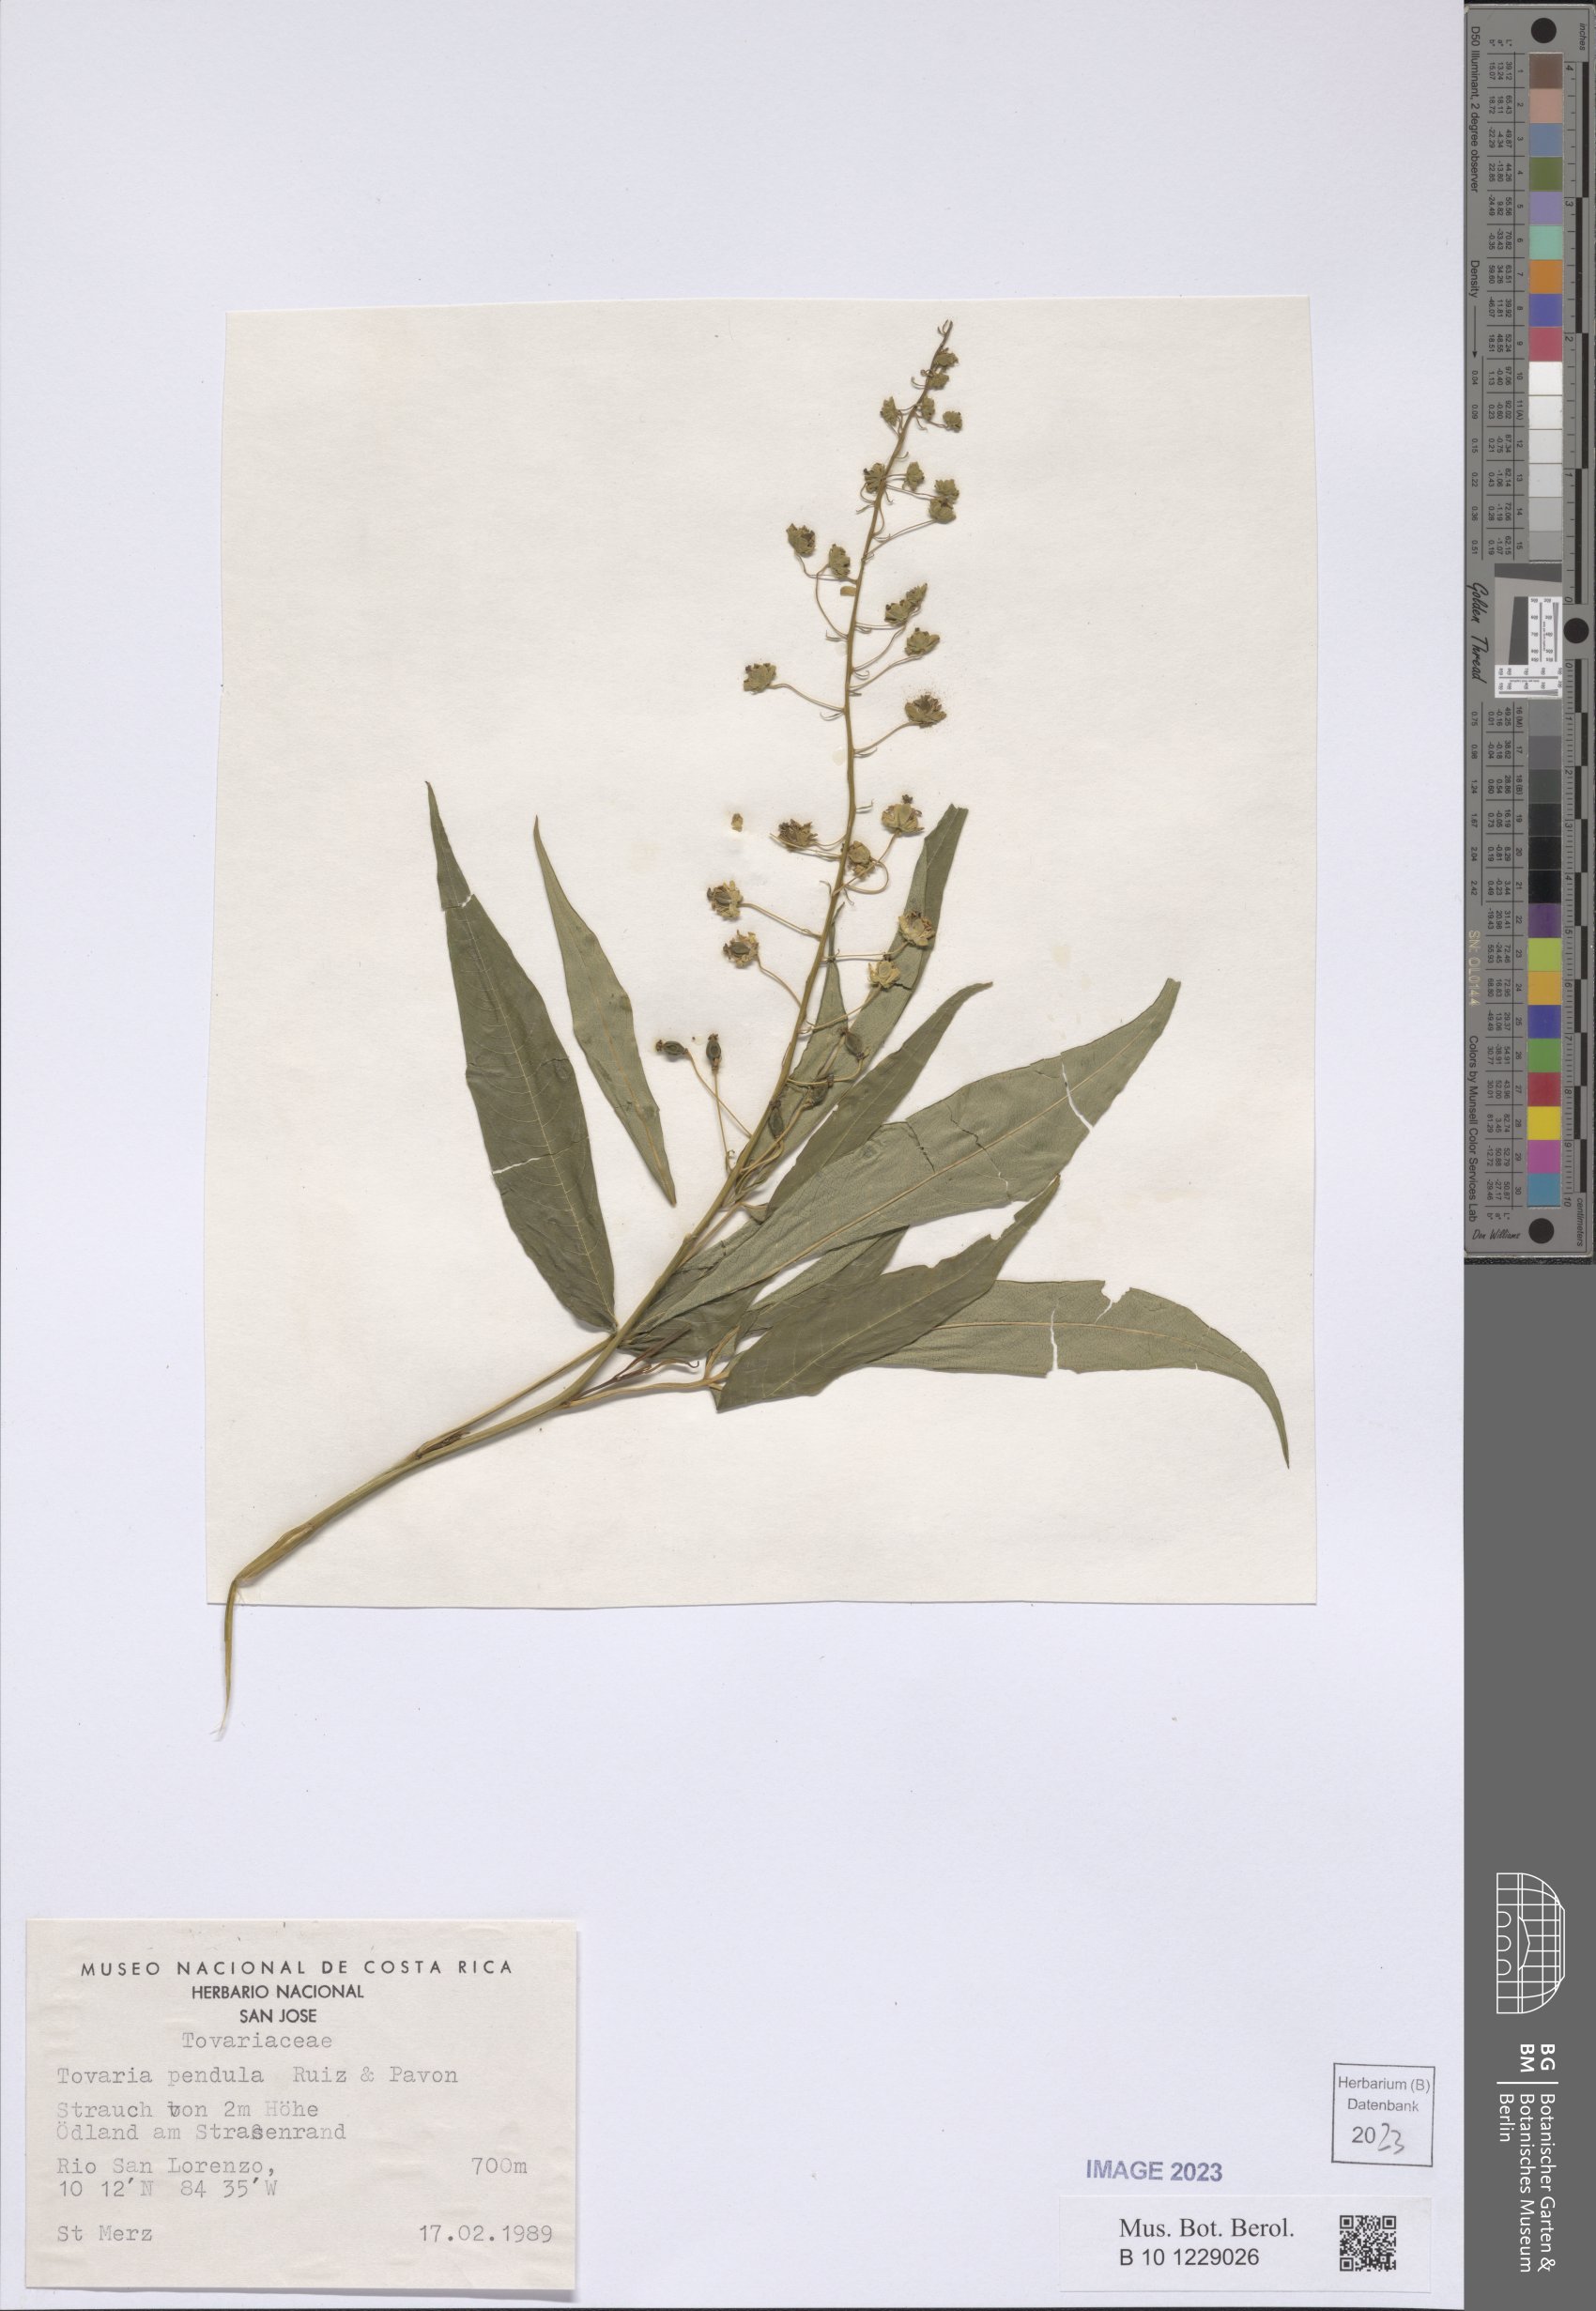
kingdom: Plantae
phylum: Tracheophyta
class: Magnoliopsida
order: Brassicales
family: Tovariaceae
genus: Tovaria
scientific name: Tovaria pendula
